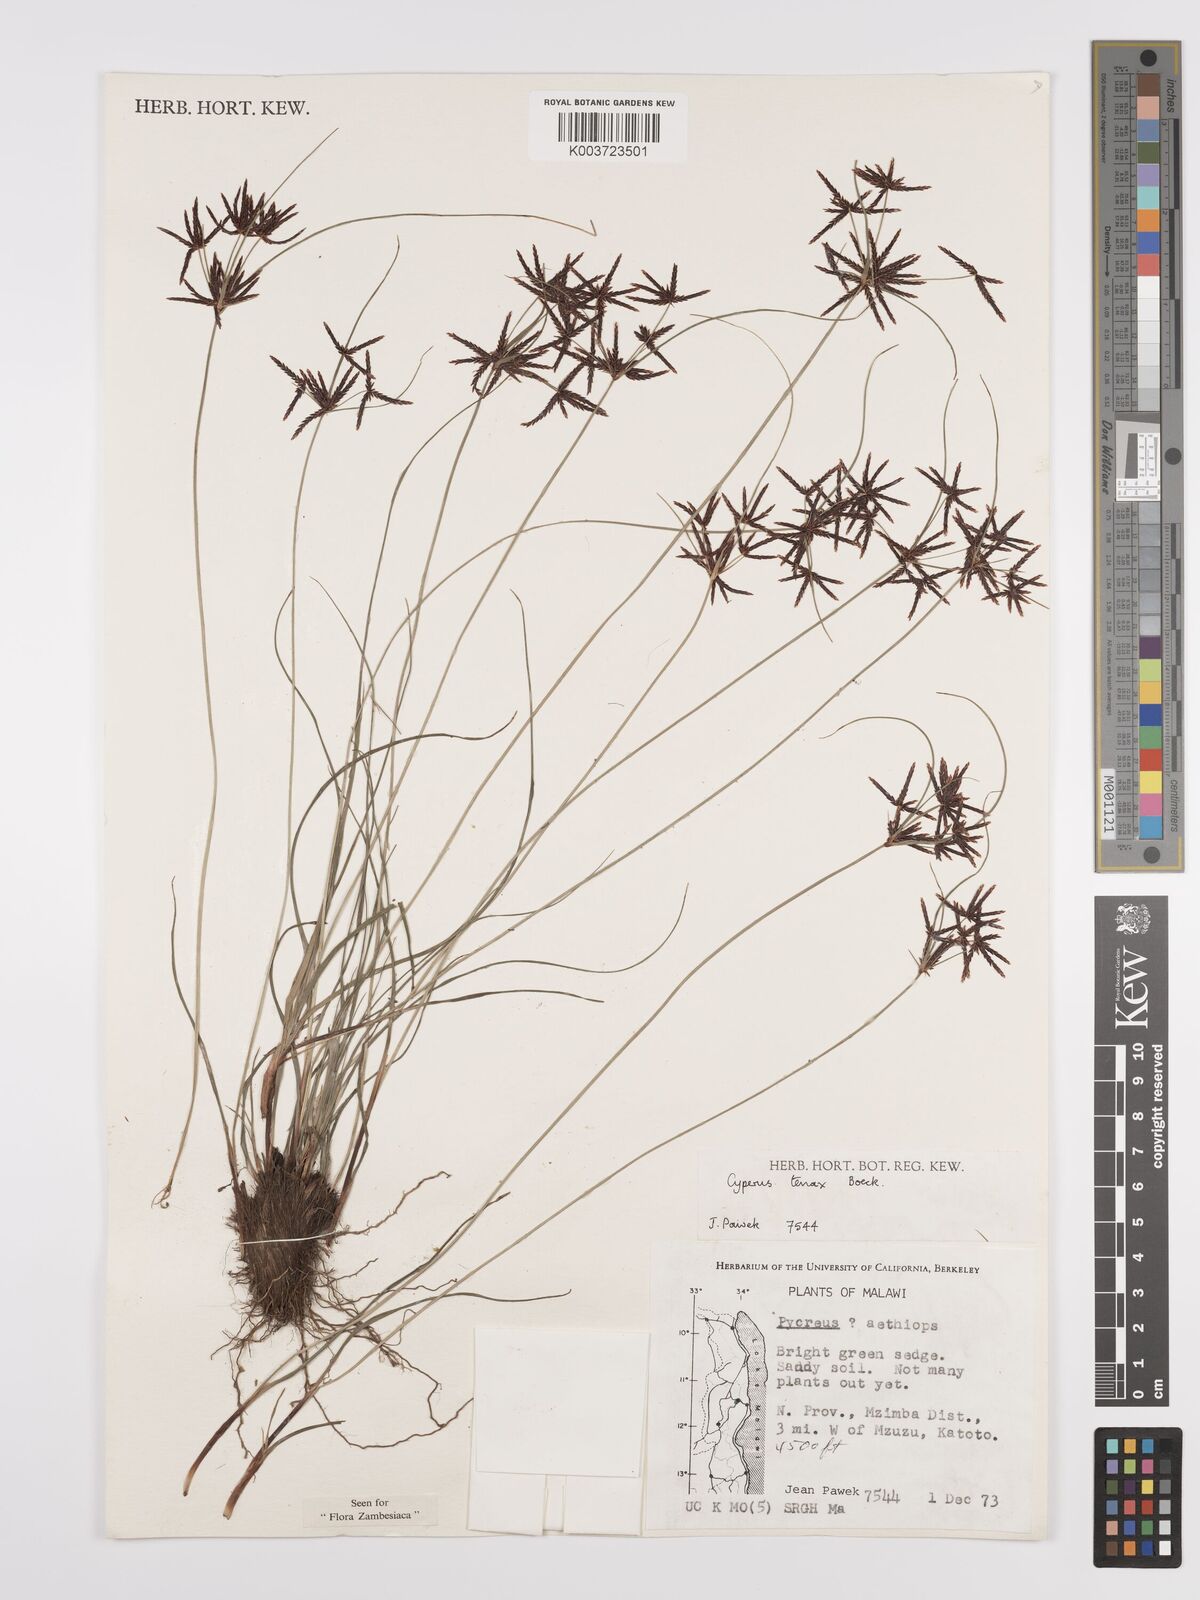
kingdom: Plantae
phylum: Tracheophyta
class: Liliopsida
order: Poales
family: Cyperaceae
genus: Cyperus
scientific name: Cyperus tenax
